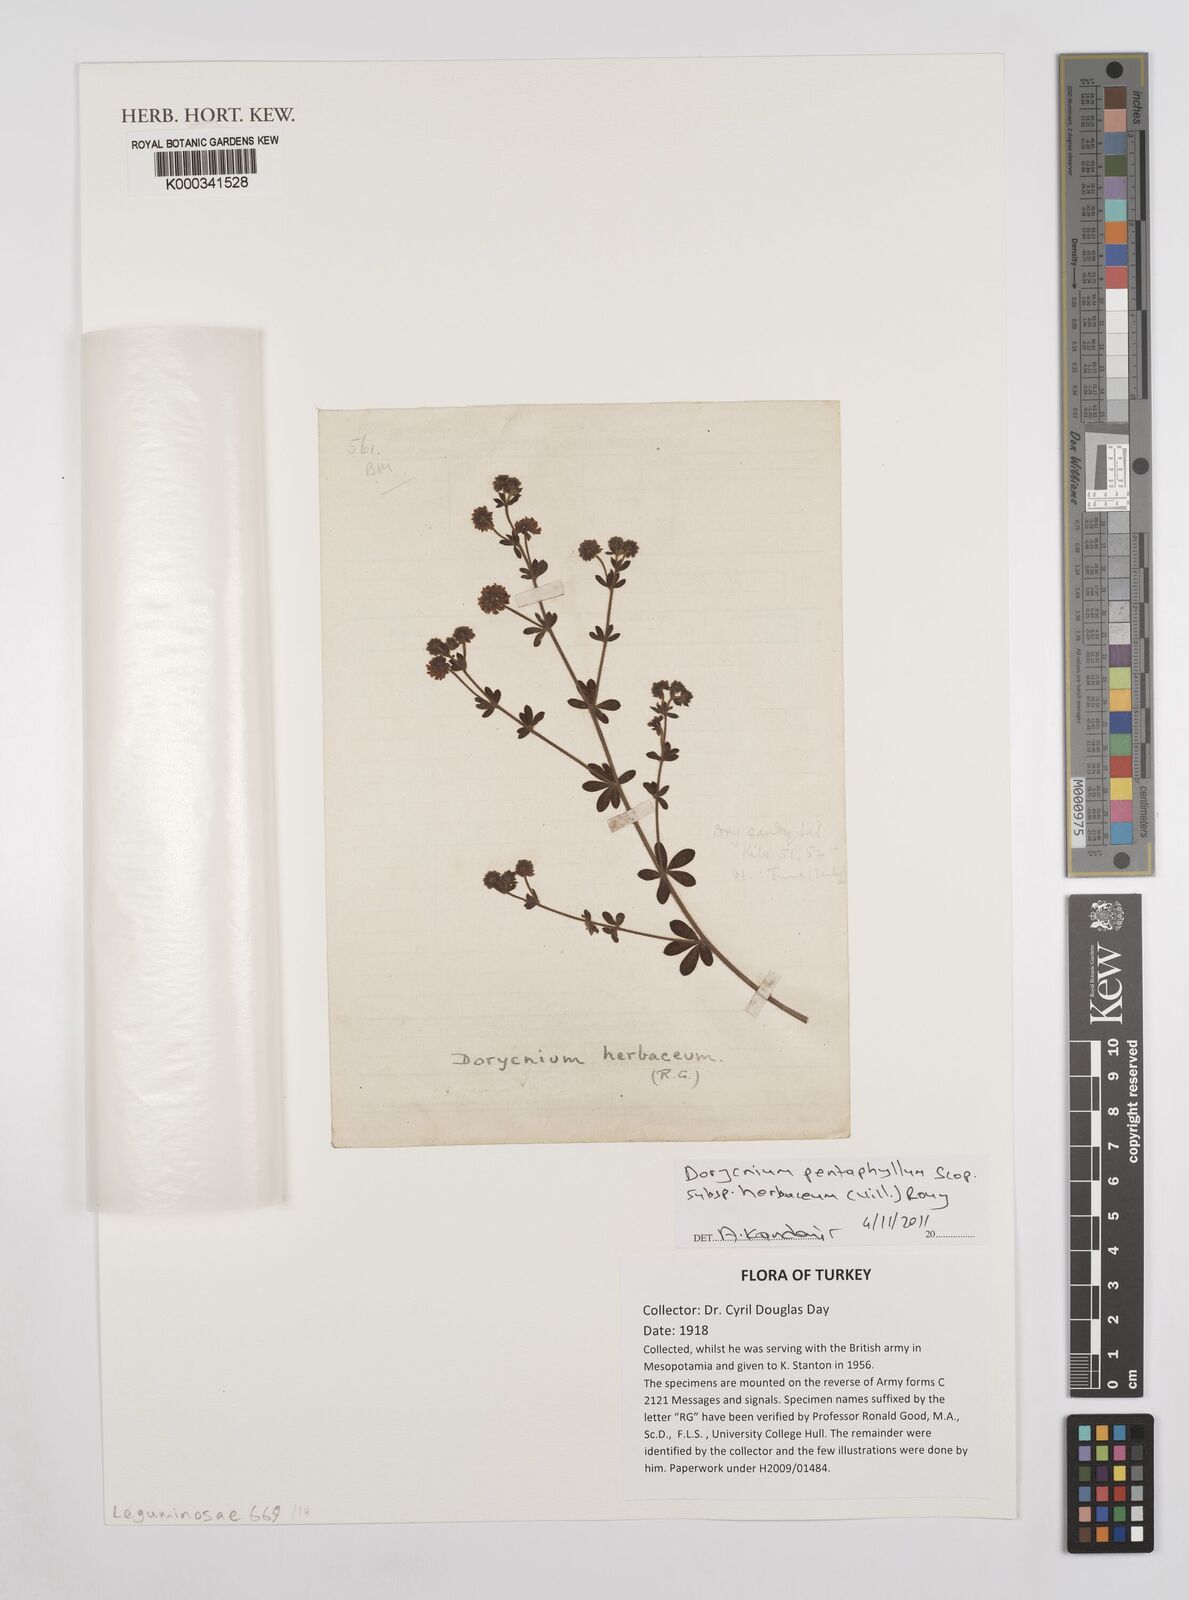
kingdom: Plantae
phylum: Tracheophyta
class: Magnoliopsida
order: Fabales
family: Fabaceae
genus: Lotus
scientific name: Lotus dorycnium
